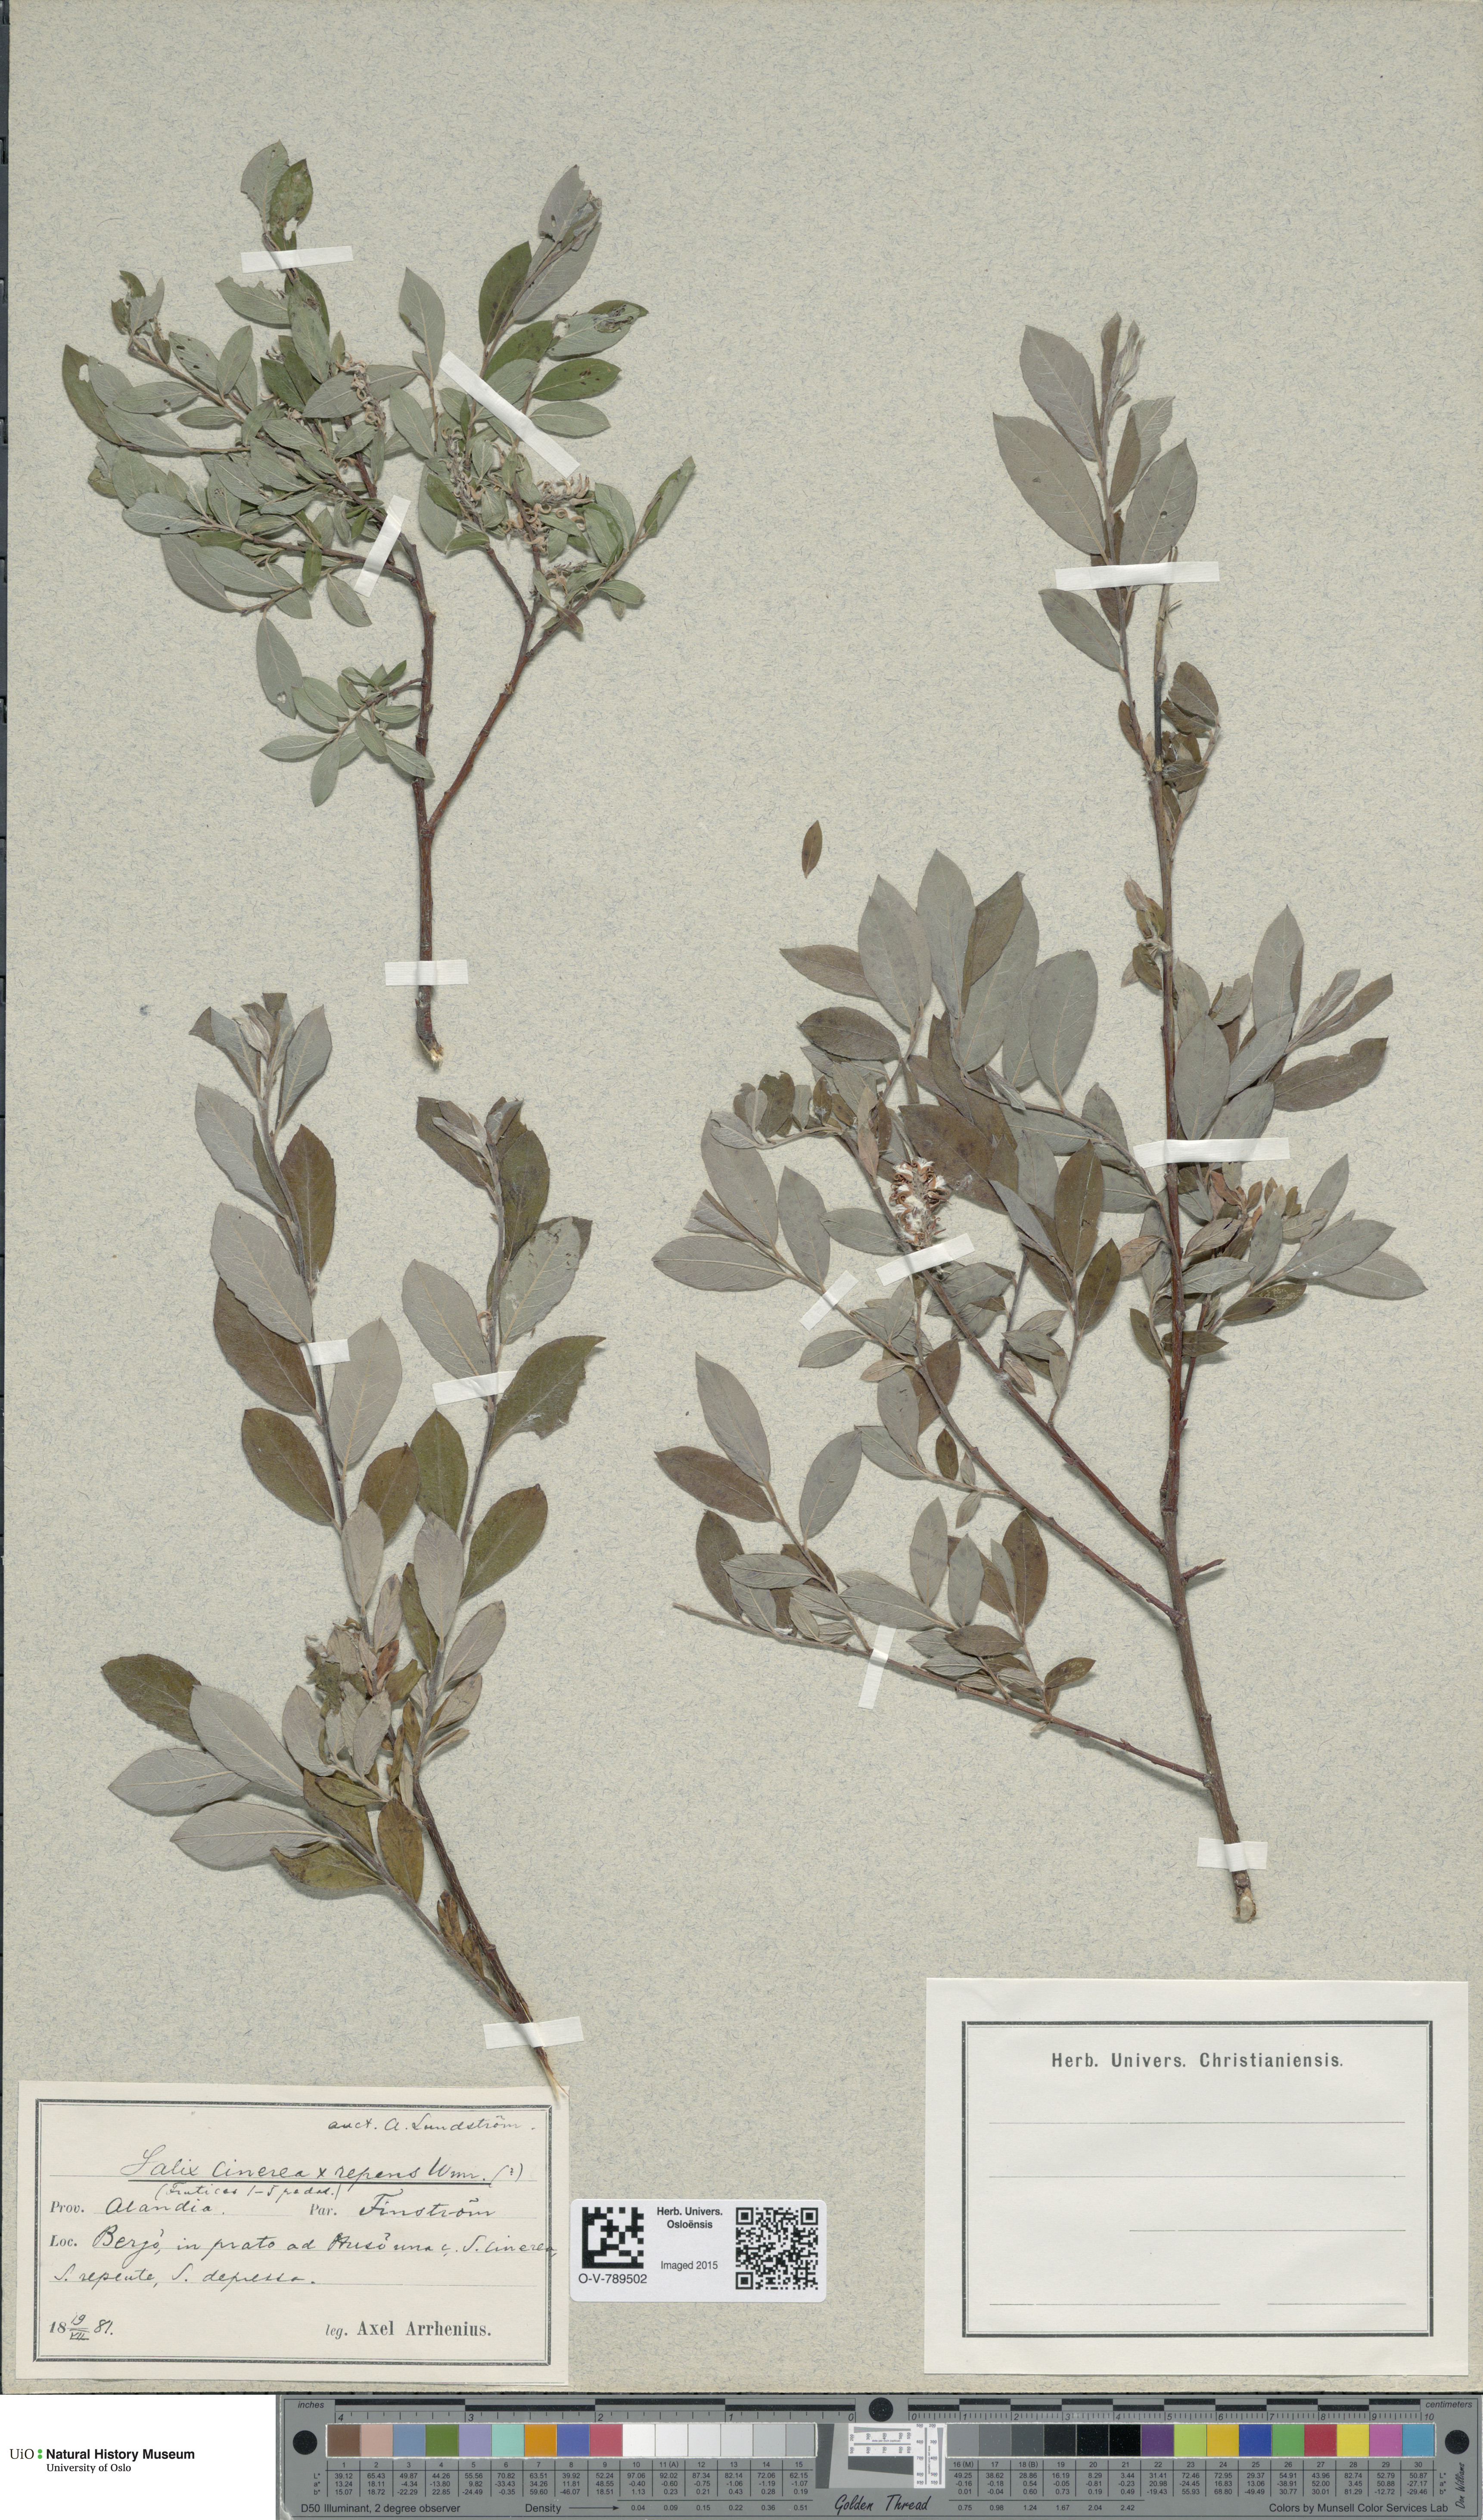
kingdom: Plantae
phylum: Tracheophyta
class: Magnoliopsida
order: Malpighiales
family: Salicaceae
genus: Salix
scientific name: Salix
